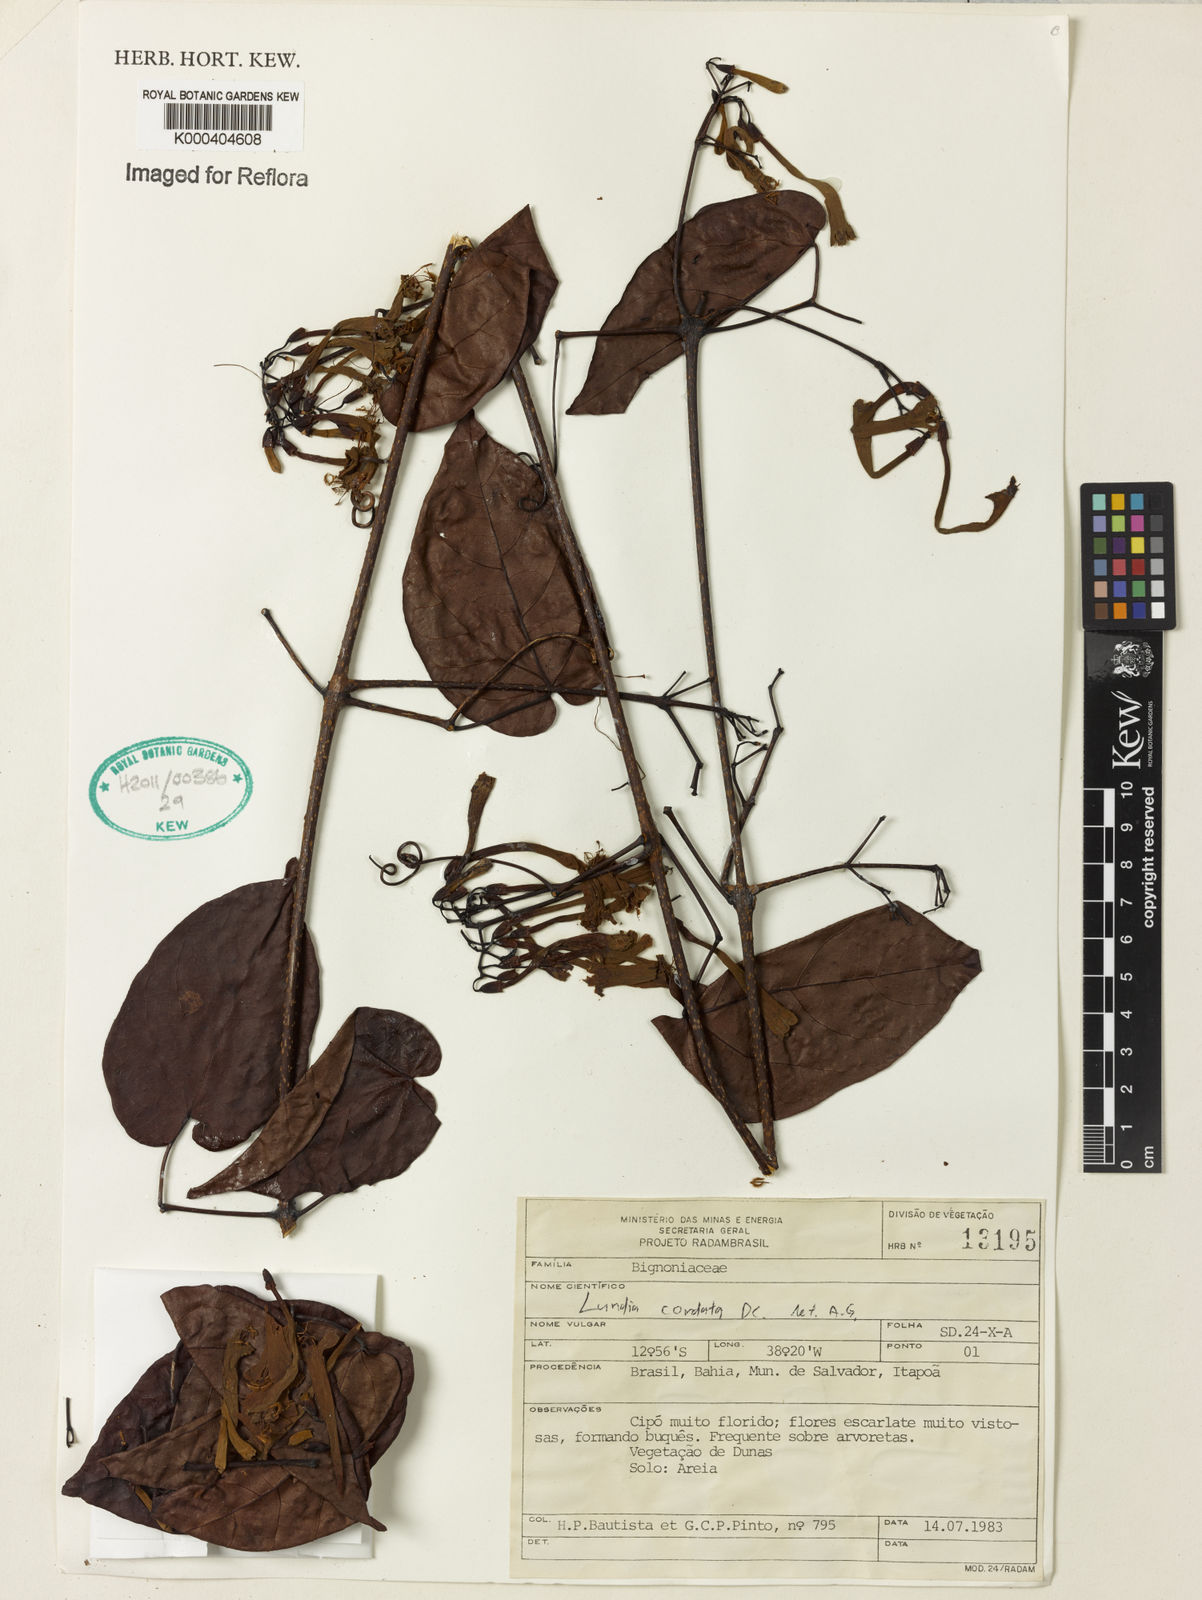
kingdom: Plantae
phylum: Tracheophyta
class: Magnoliopsida
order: Lamiales
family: Bignoniaceae
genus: Lundia
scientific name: Lundia corymbifera
